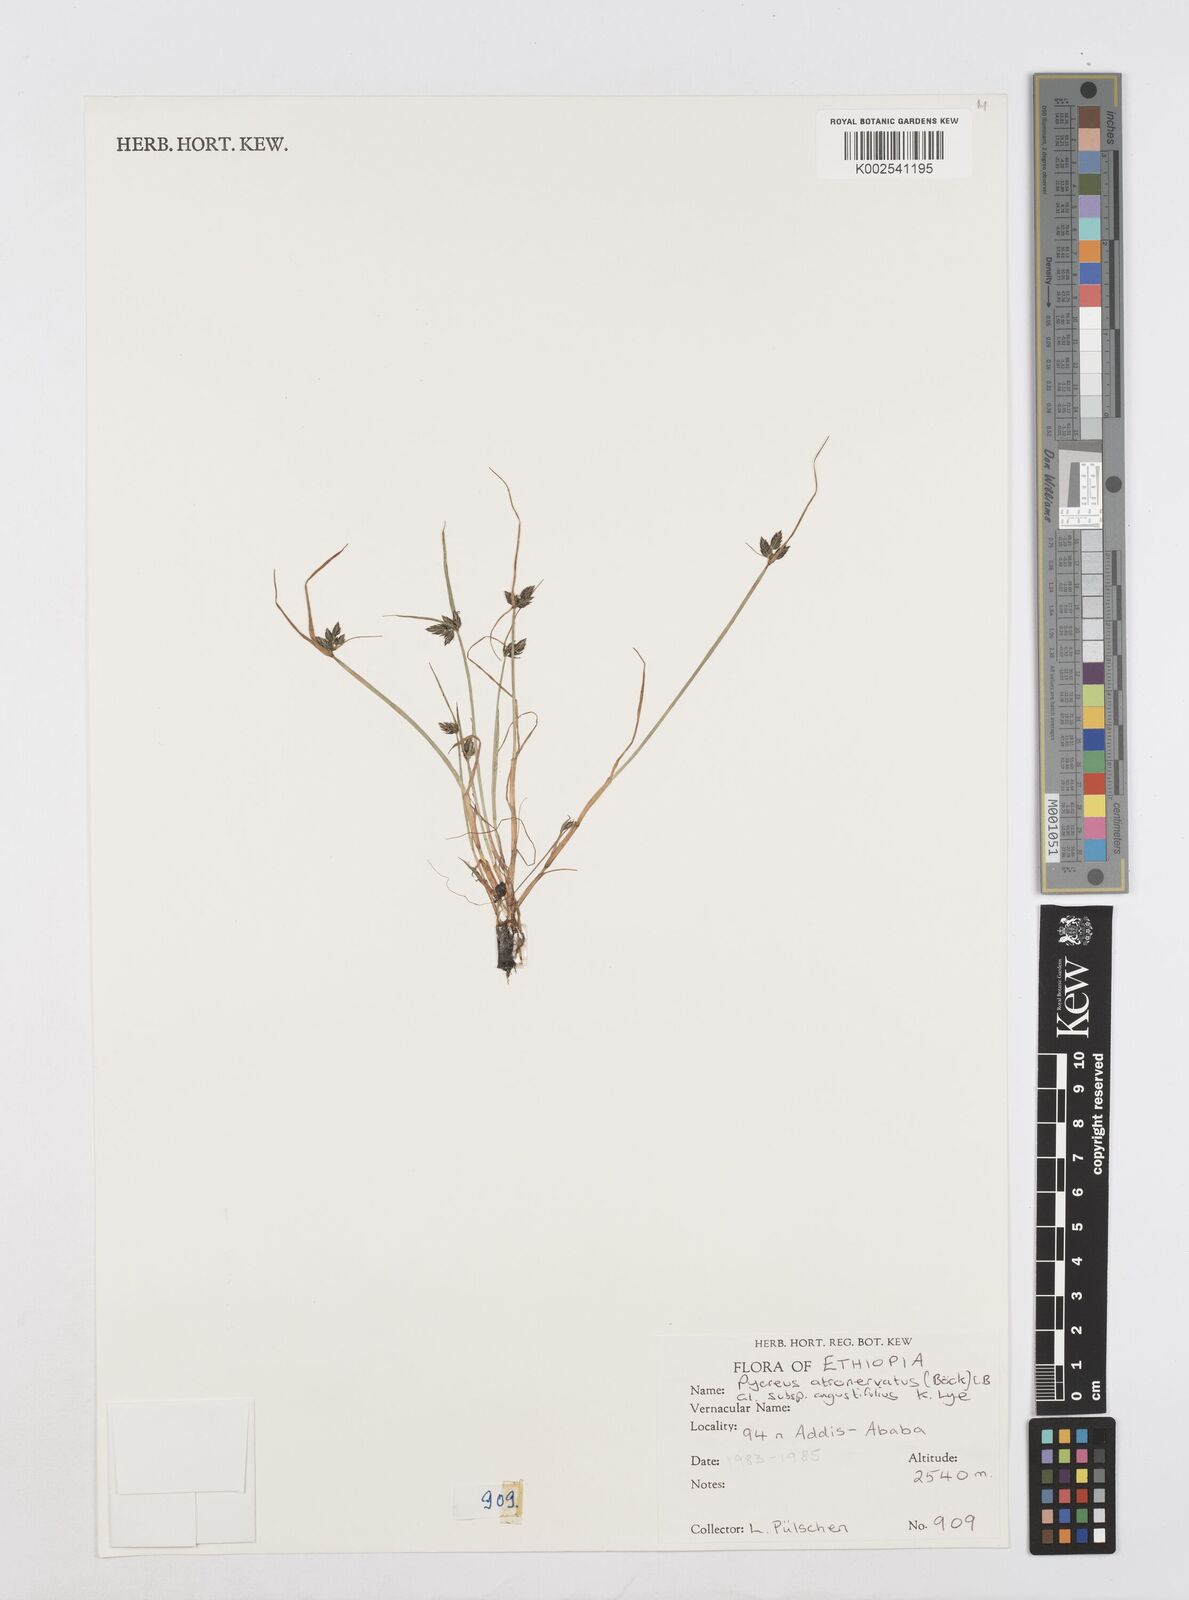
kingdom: Plantae
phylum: Tracheophyta
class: Liliopsida
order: Poales
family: Cyperaceae
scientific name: Cyperaceae
